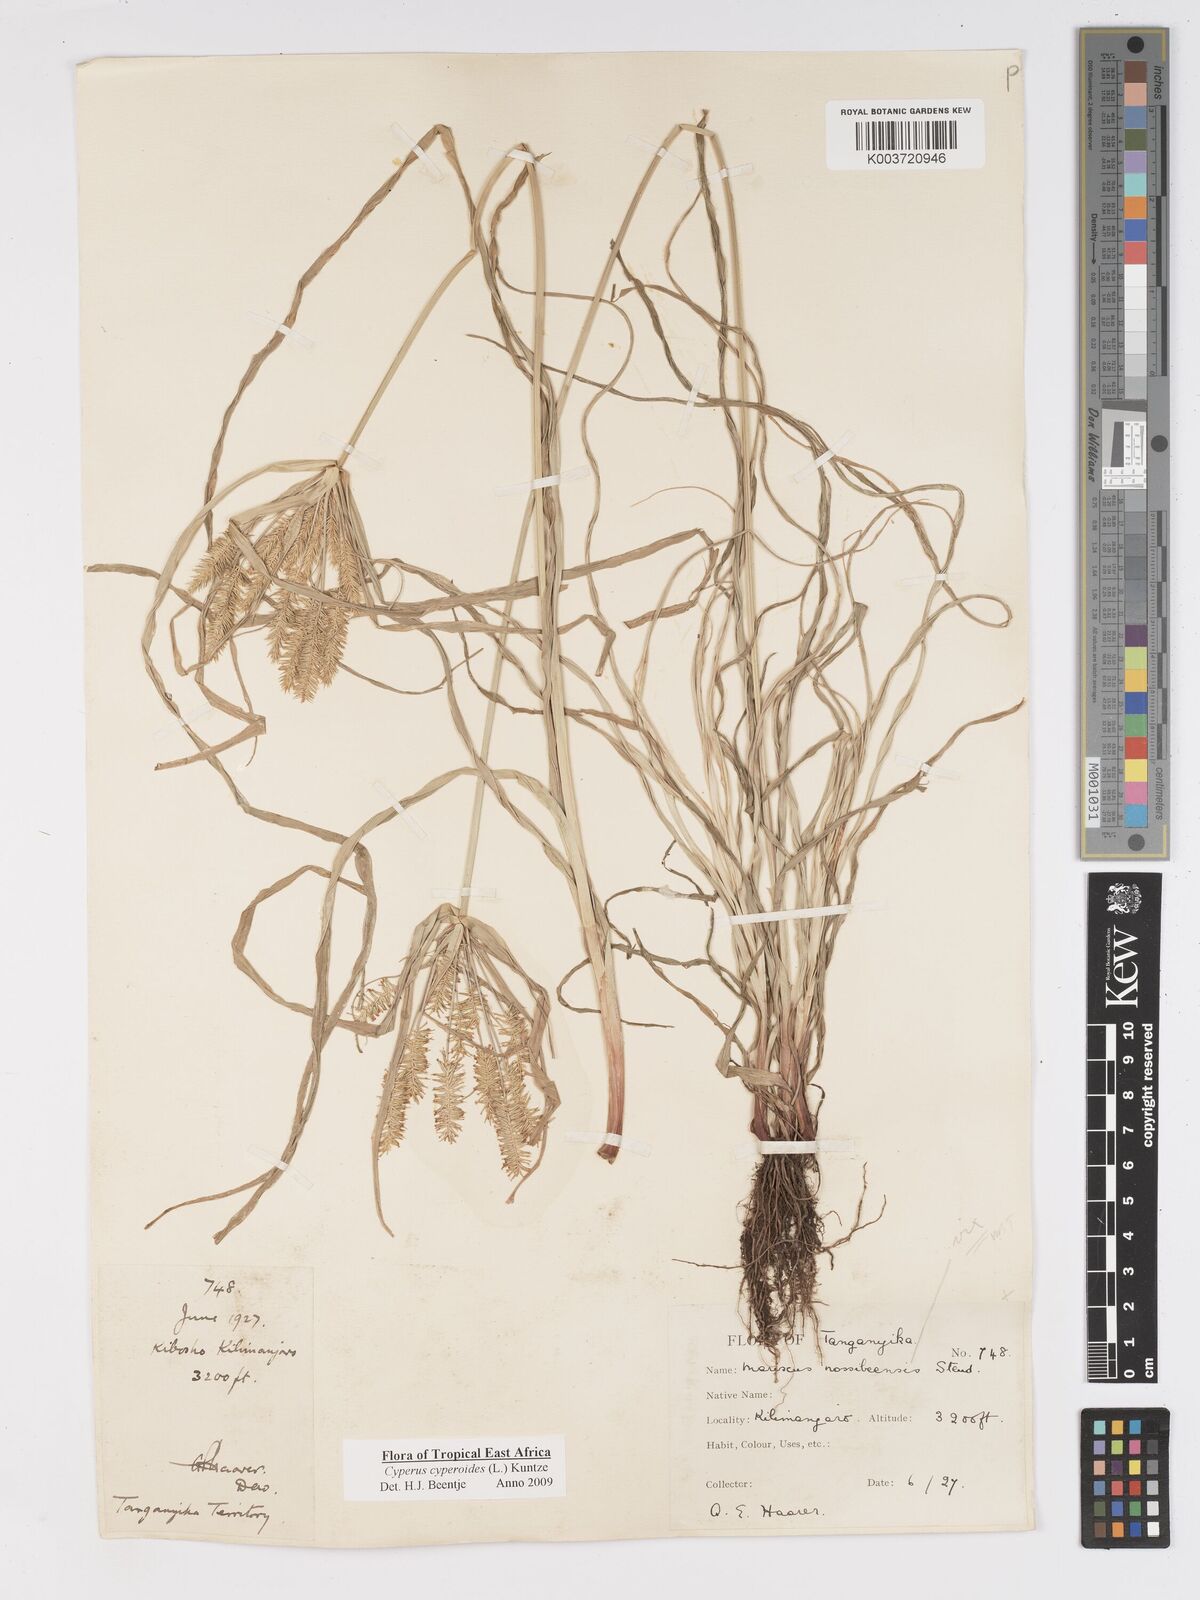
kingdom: Plantae
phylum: Tracheophyta
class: Liliopsida
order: Poales
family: Cyperaceae
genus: Cyperus
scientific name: Cyperus cyperoides
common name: Pacific island flat sedge
